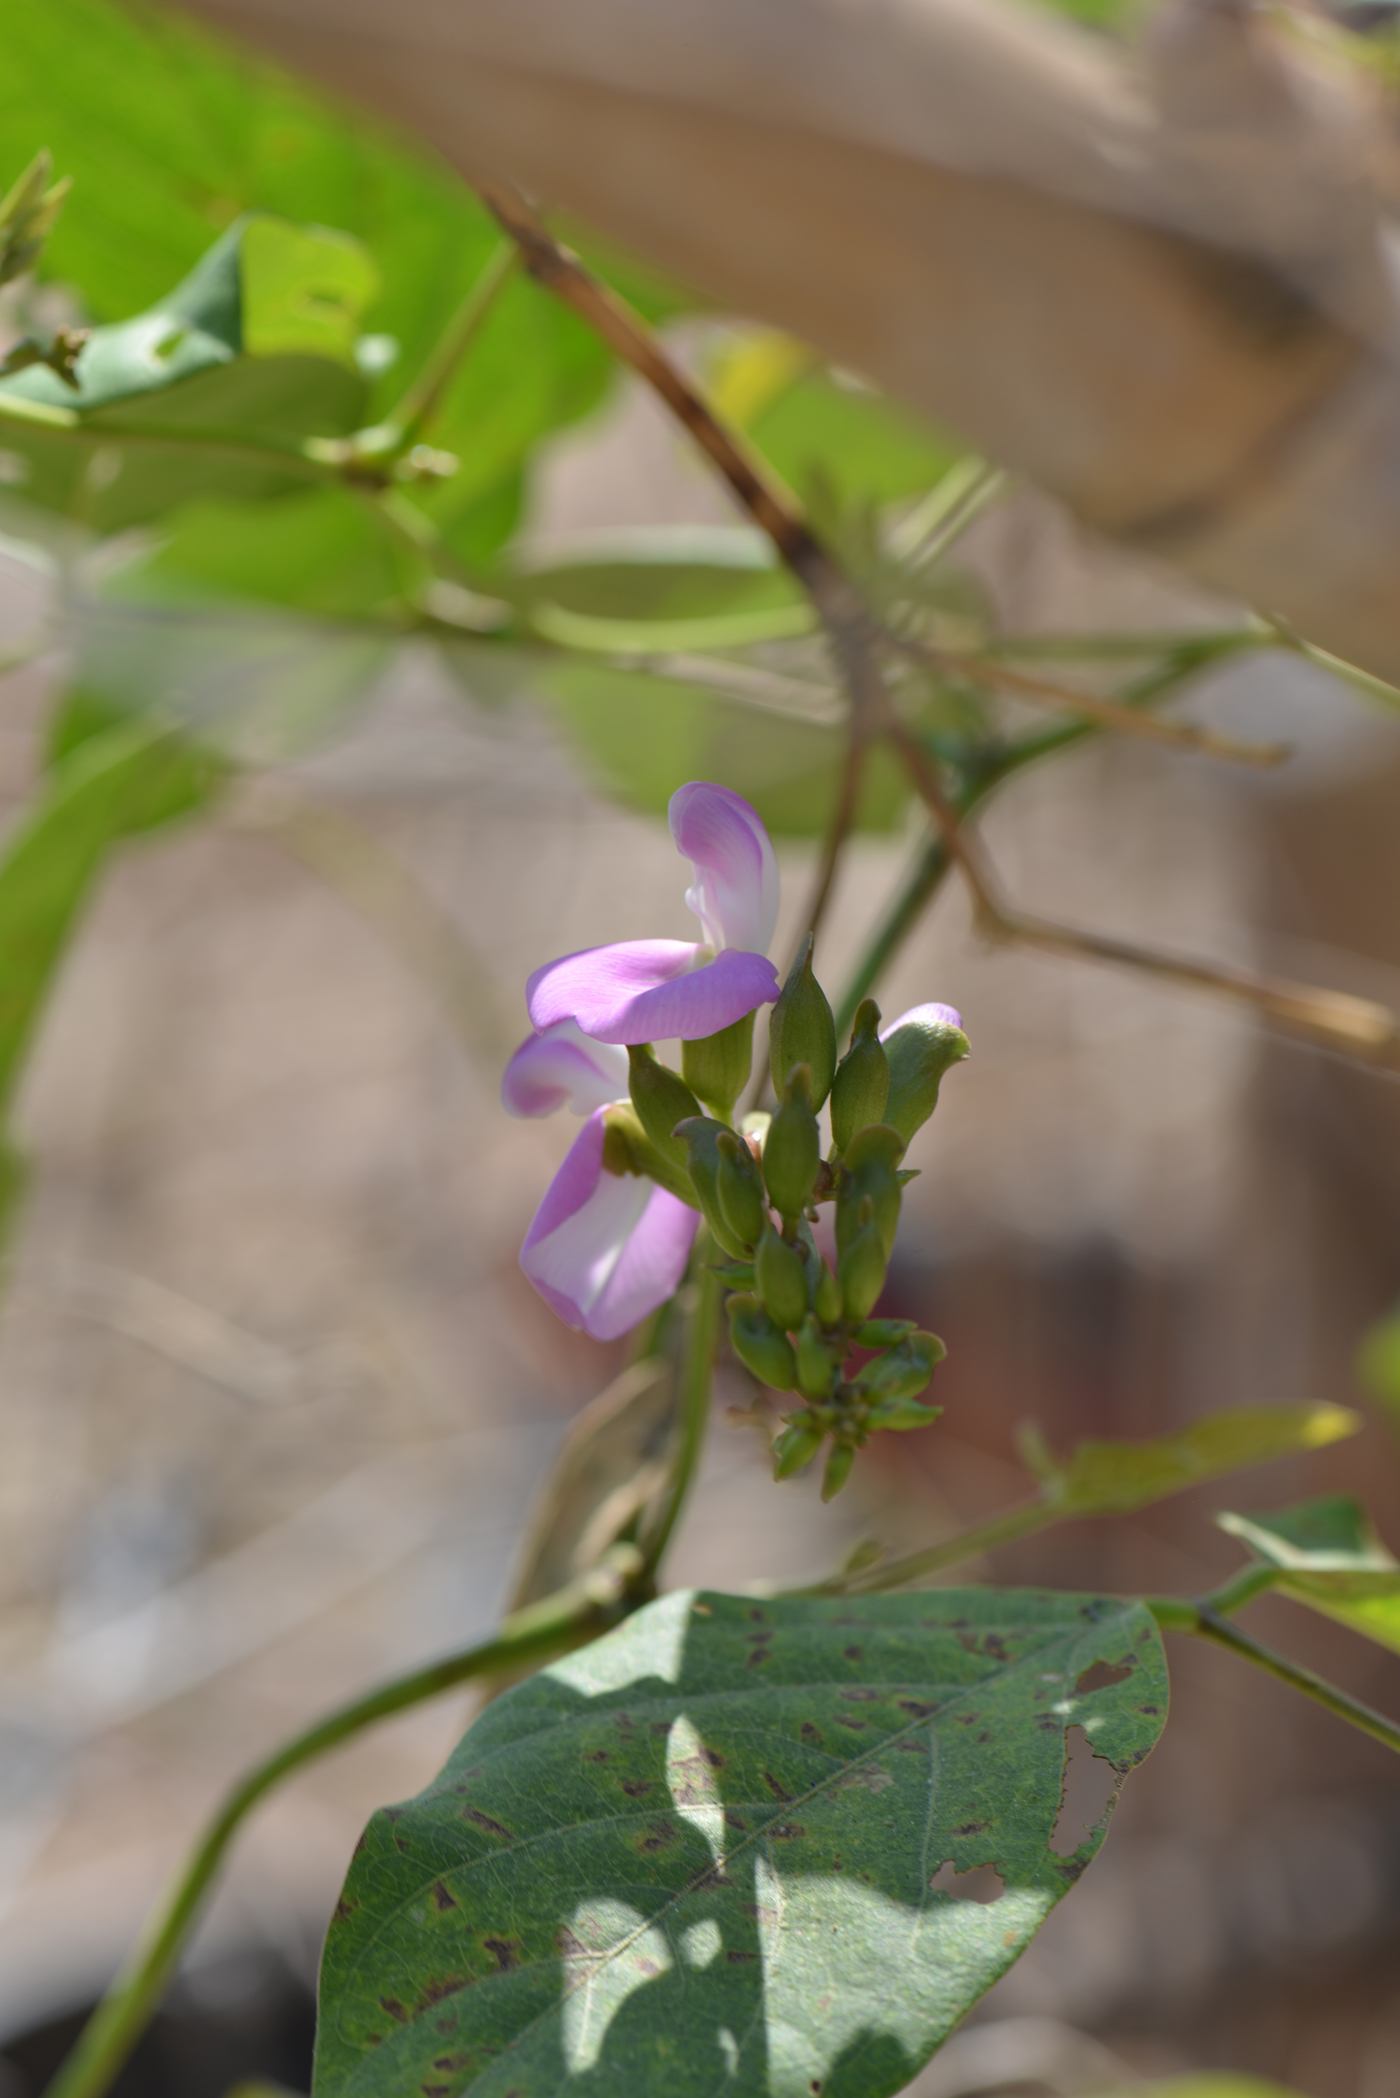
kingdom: Plantae
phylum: Tracheophyta
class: Magnoliopsida
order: Fabales
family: Fabaceae
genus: Canavalia
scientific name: Canavalia gladiata
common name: Scimitar-bean
